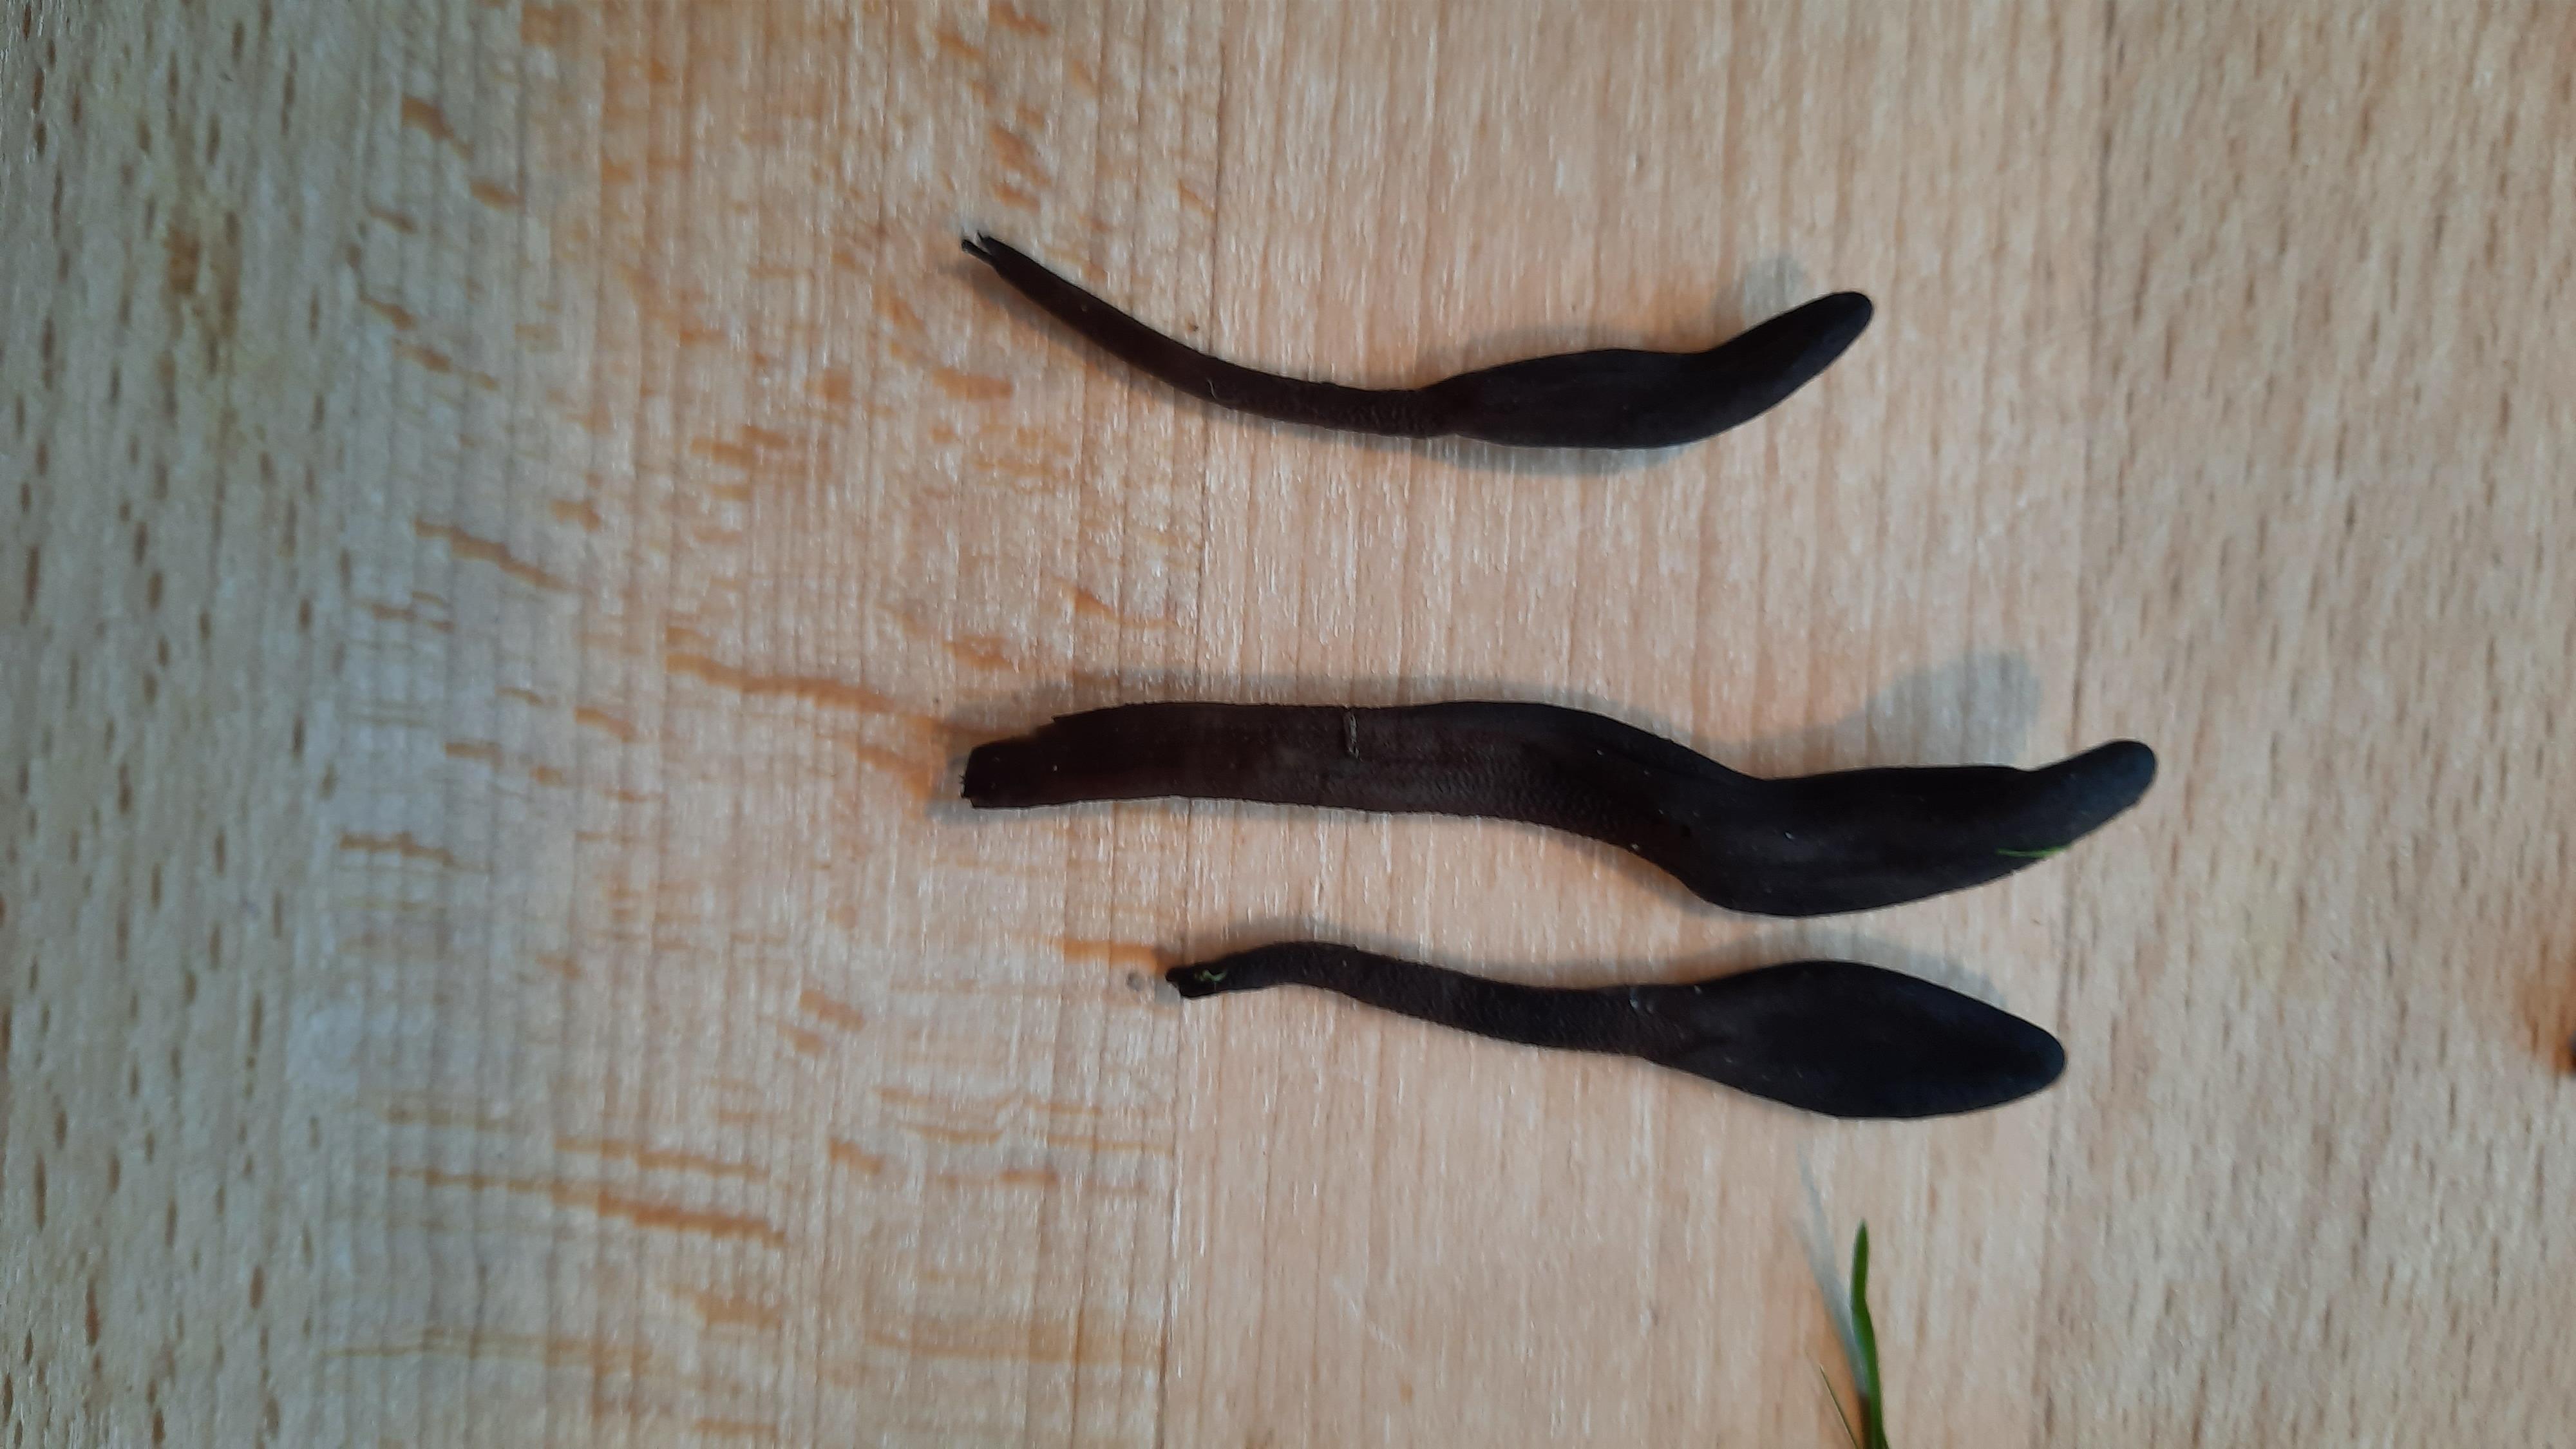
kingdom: Fungi
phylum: Ascomycota
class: Geoglossomycetes
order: Geoglossales
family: Geoglossaceae
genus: Geoglossum
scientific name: Geoglossum
